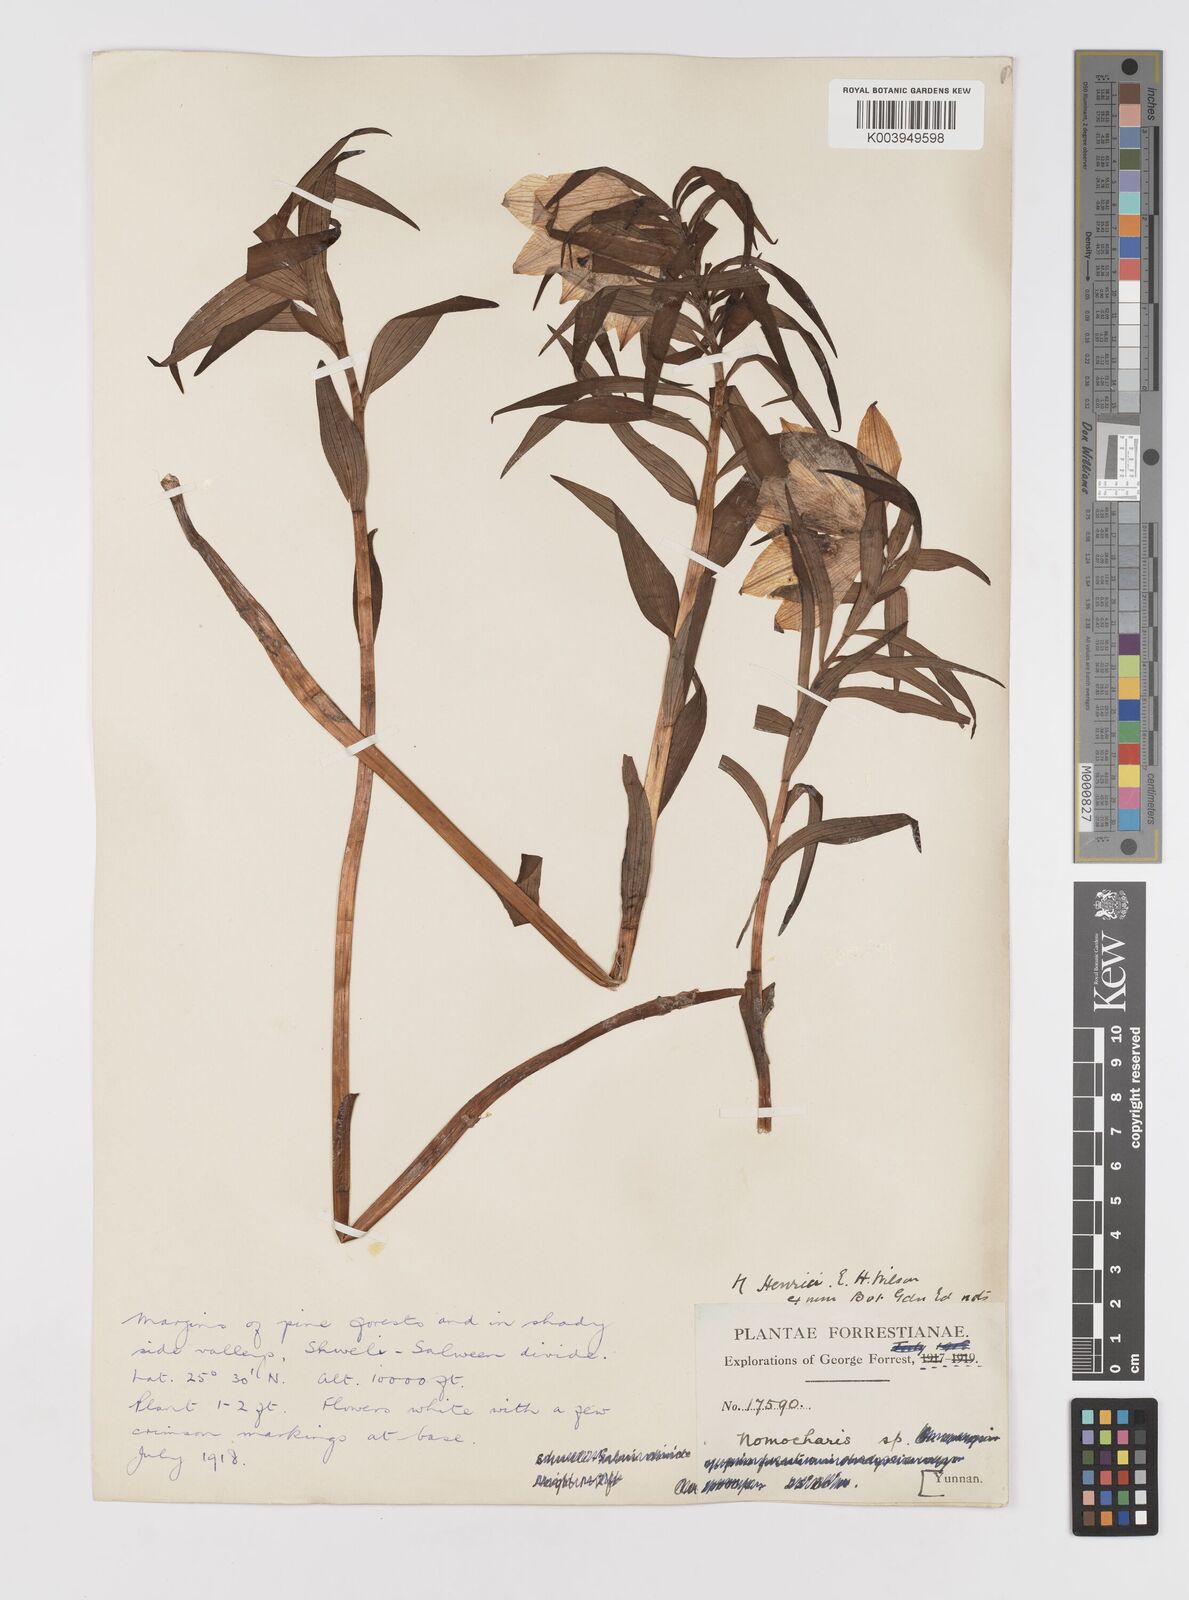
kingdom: Plantae
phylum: Tracheophyta
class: Liliopsida
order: Liliales
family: Liliaceae
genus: Lilium
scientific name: Lilium henrici
